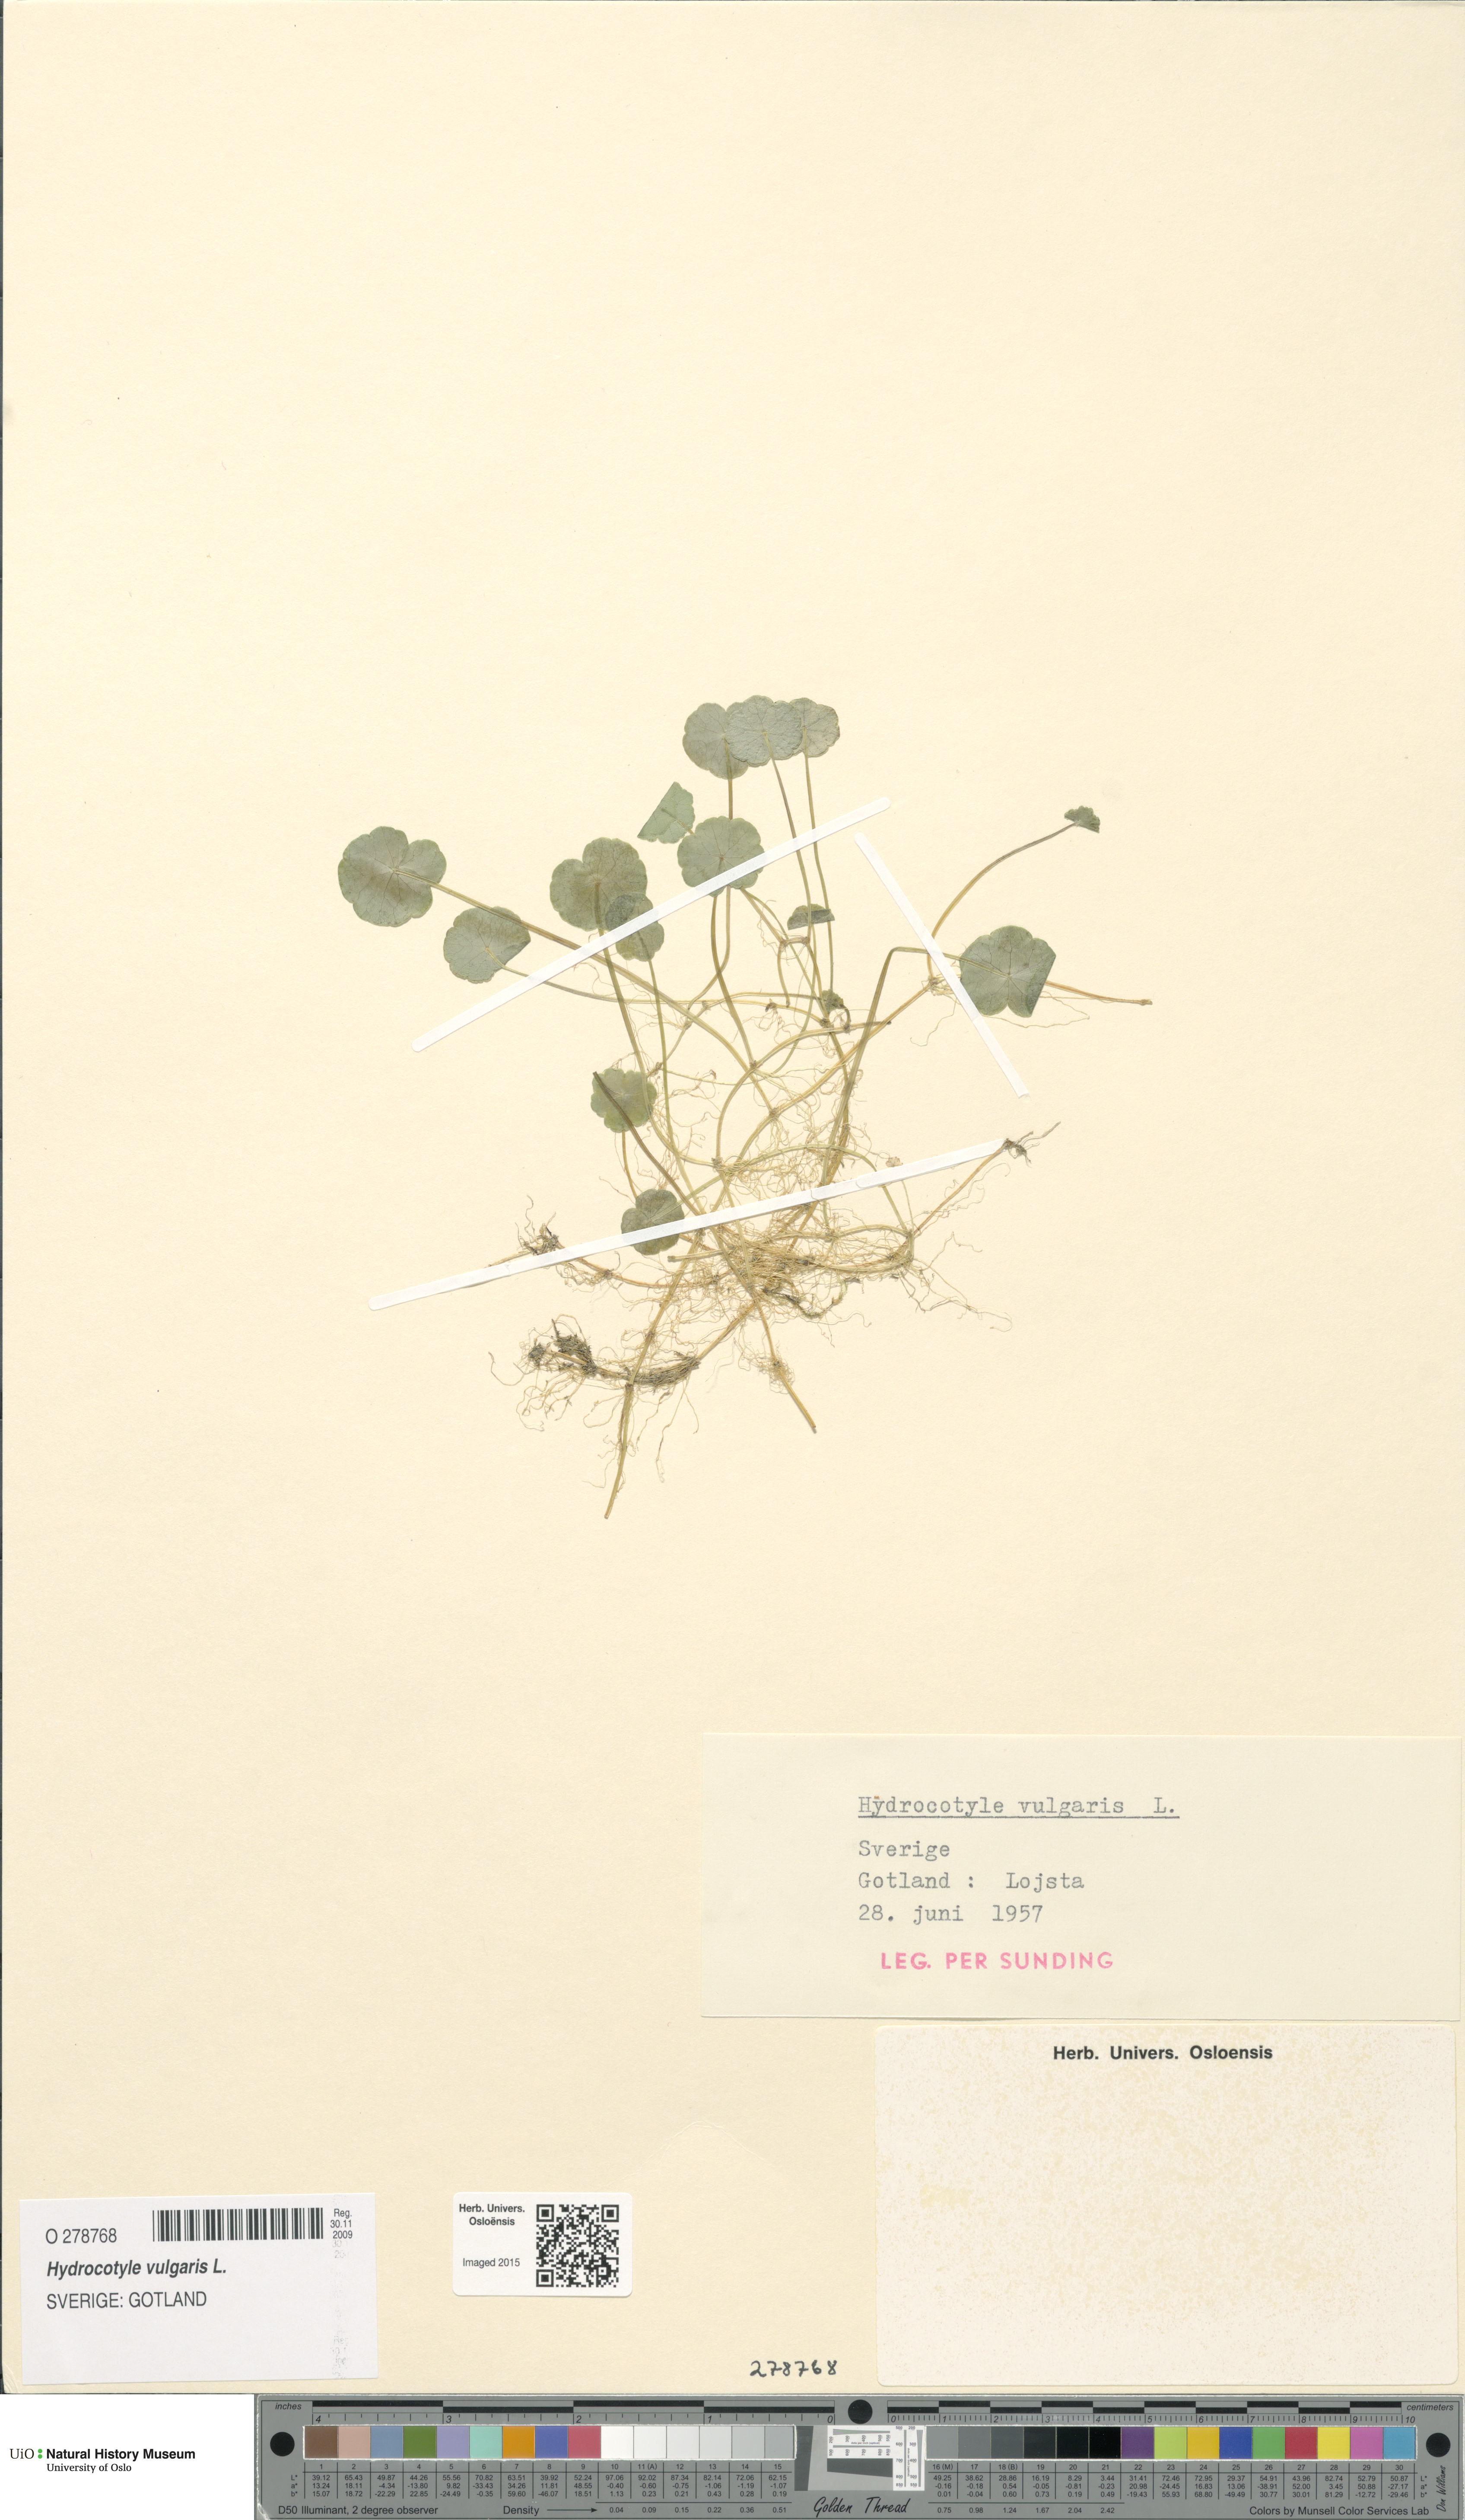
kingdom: Plantae
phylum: Tracheophyta
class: Magnoliopsida
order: Apiales
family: Araliaceae
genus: Hydrocotyle
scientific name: Hydrocotyle vulgaris
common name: Marsh pennywort
